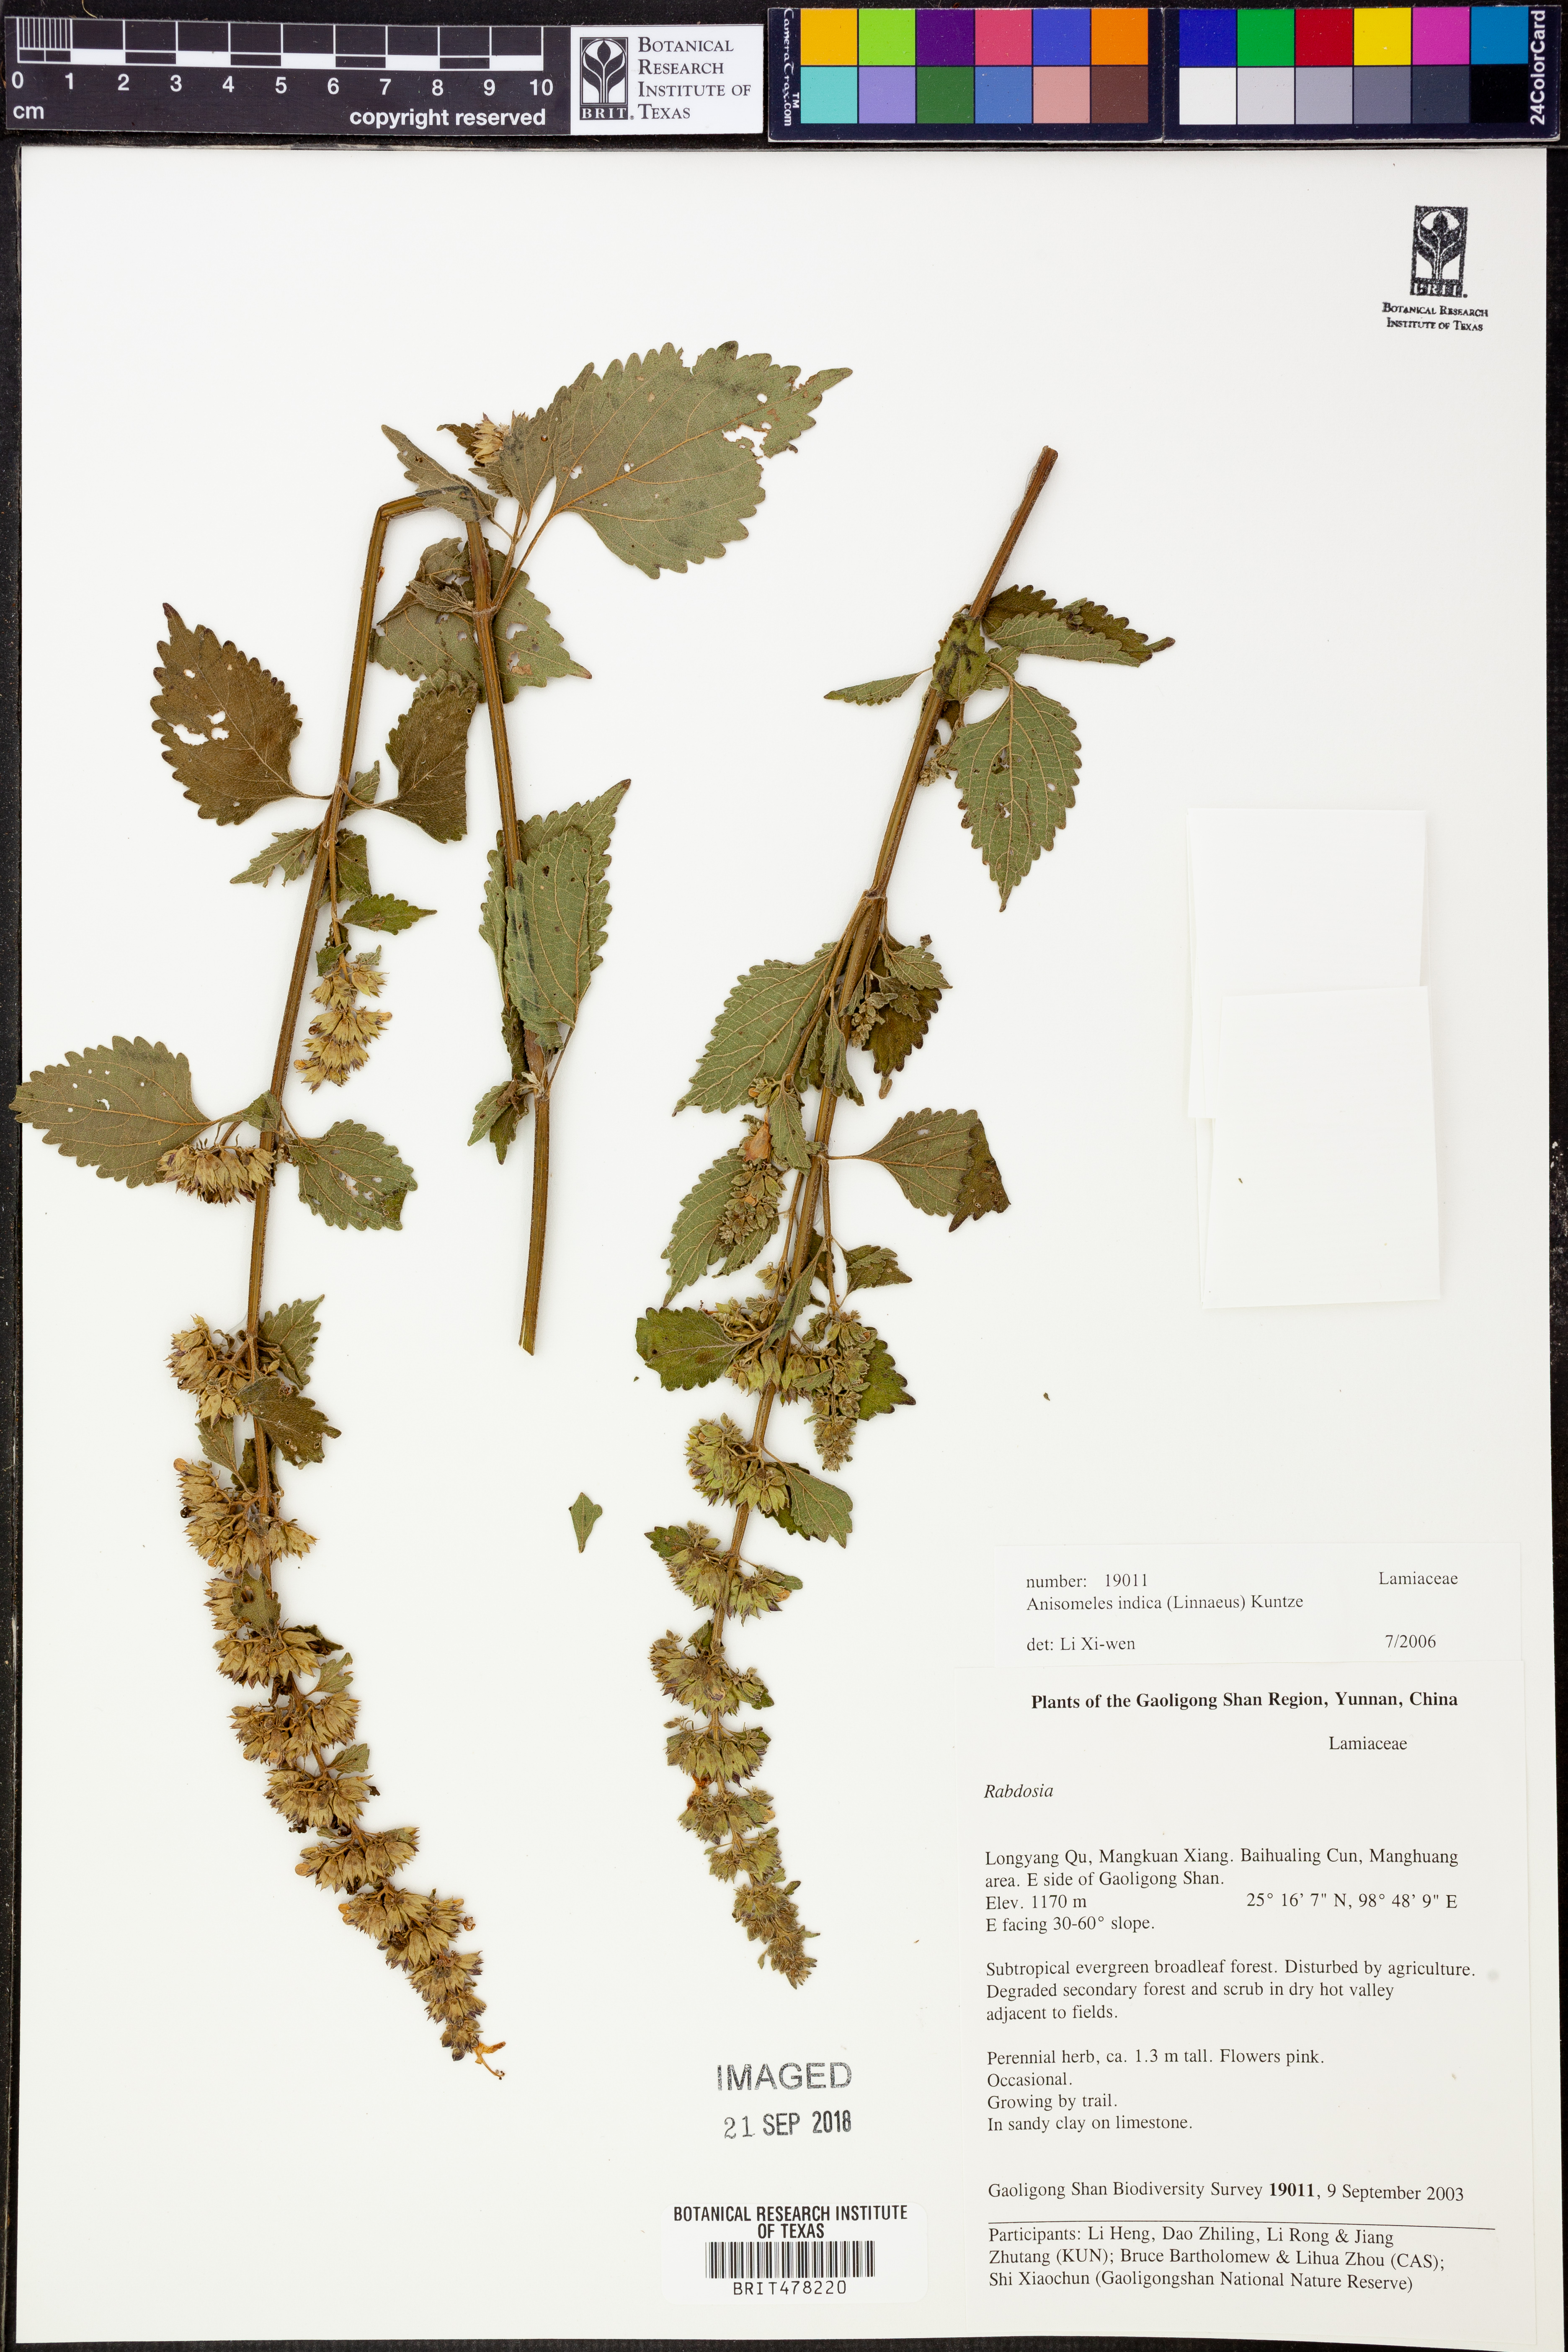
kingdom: Plantae
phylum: Tracheophyta
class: Magnoliopsida
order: Lamiales
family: Lamiaceae
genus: Anisomeles
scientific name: Anisomeles indica
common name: Catmint
